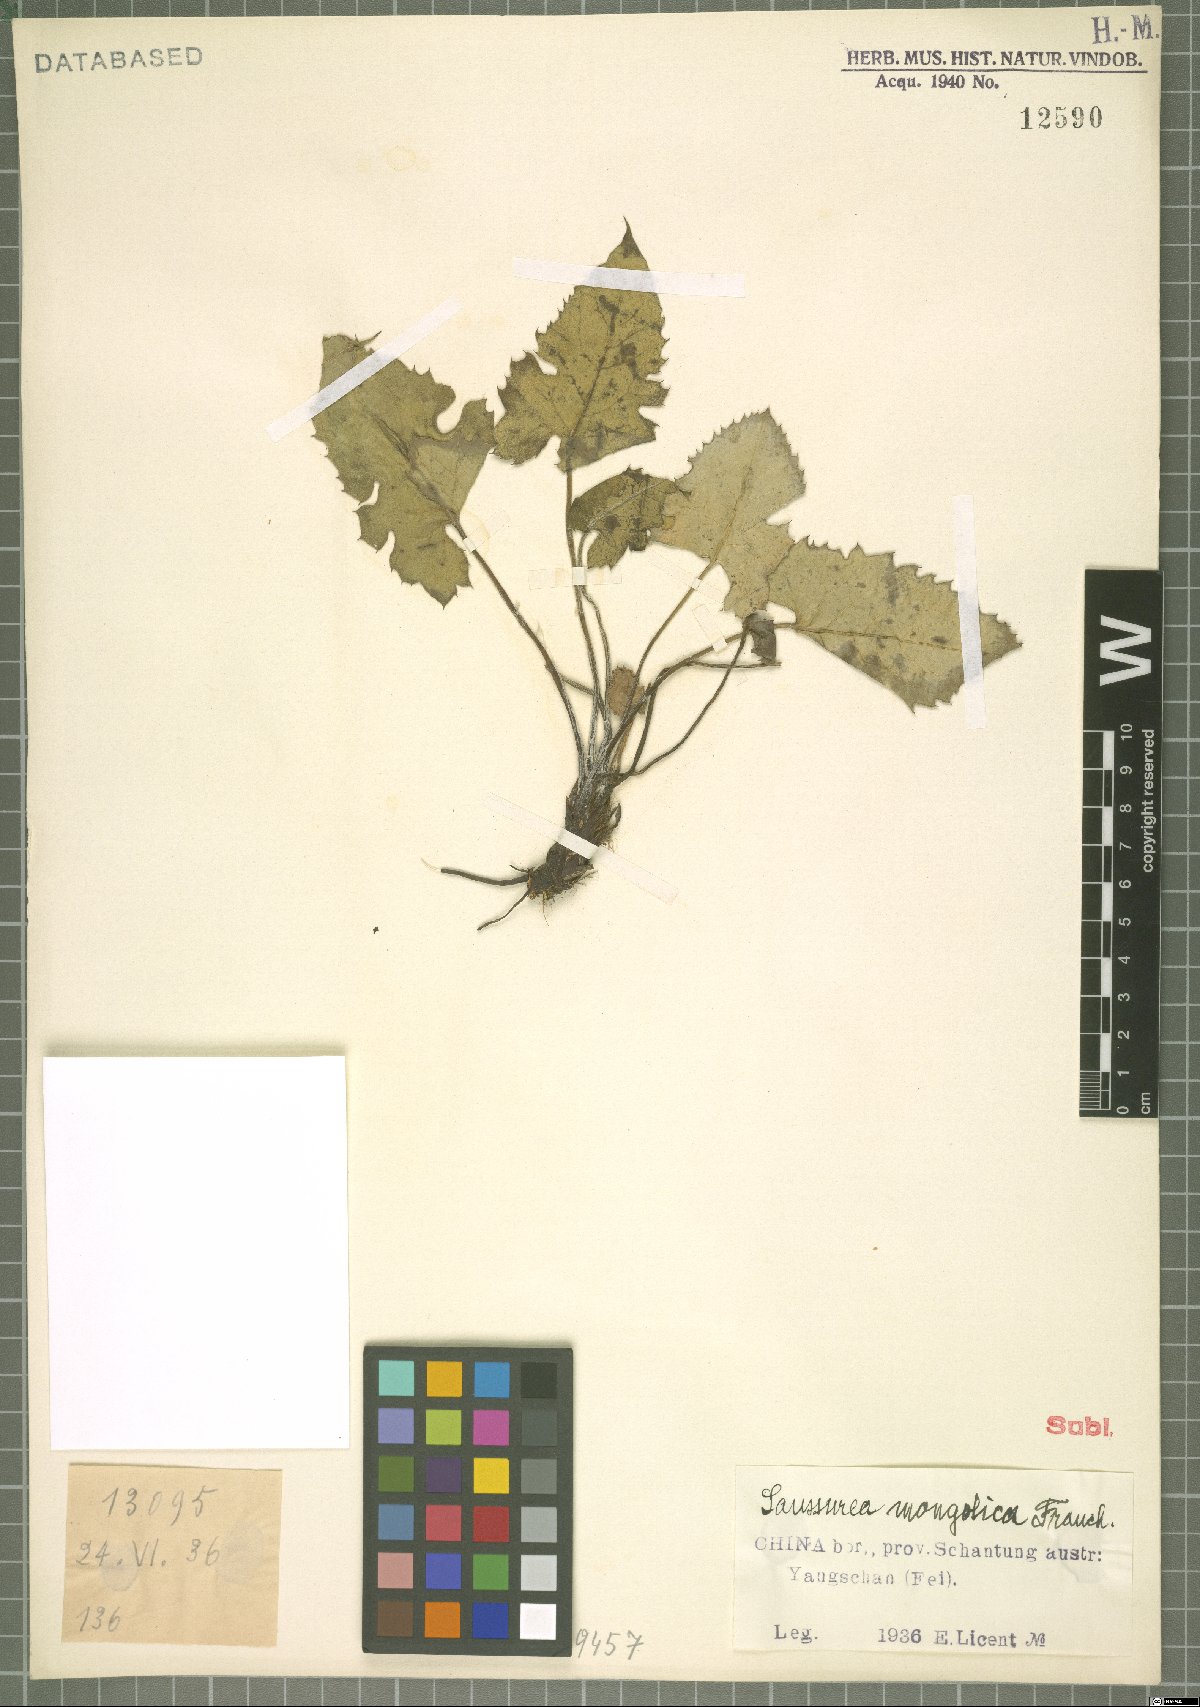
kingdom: Plantae
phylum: Tracheophyta
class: Magnoliopsida
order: Asterales
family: Asteraceae
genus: Saussurea
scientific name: Saussurea mongolica
